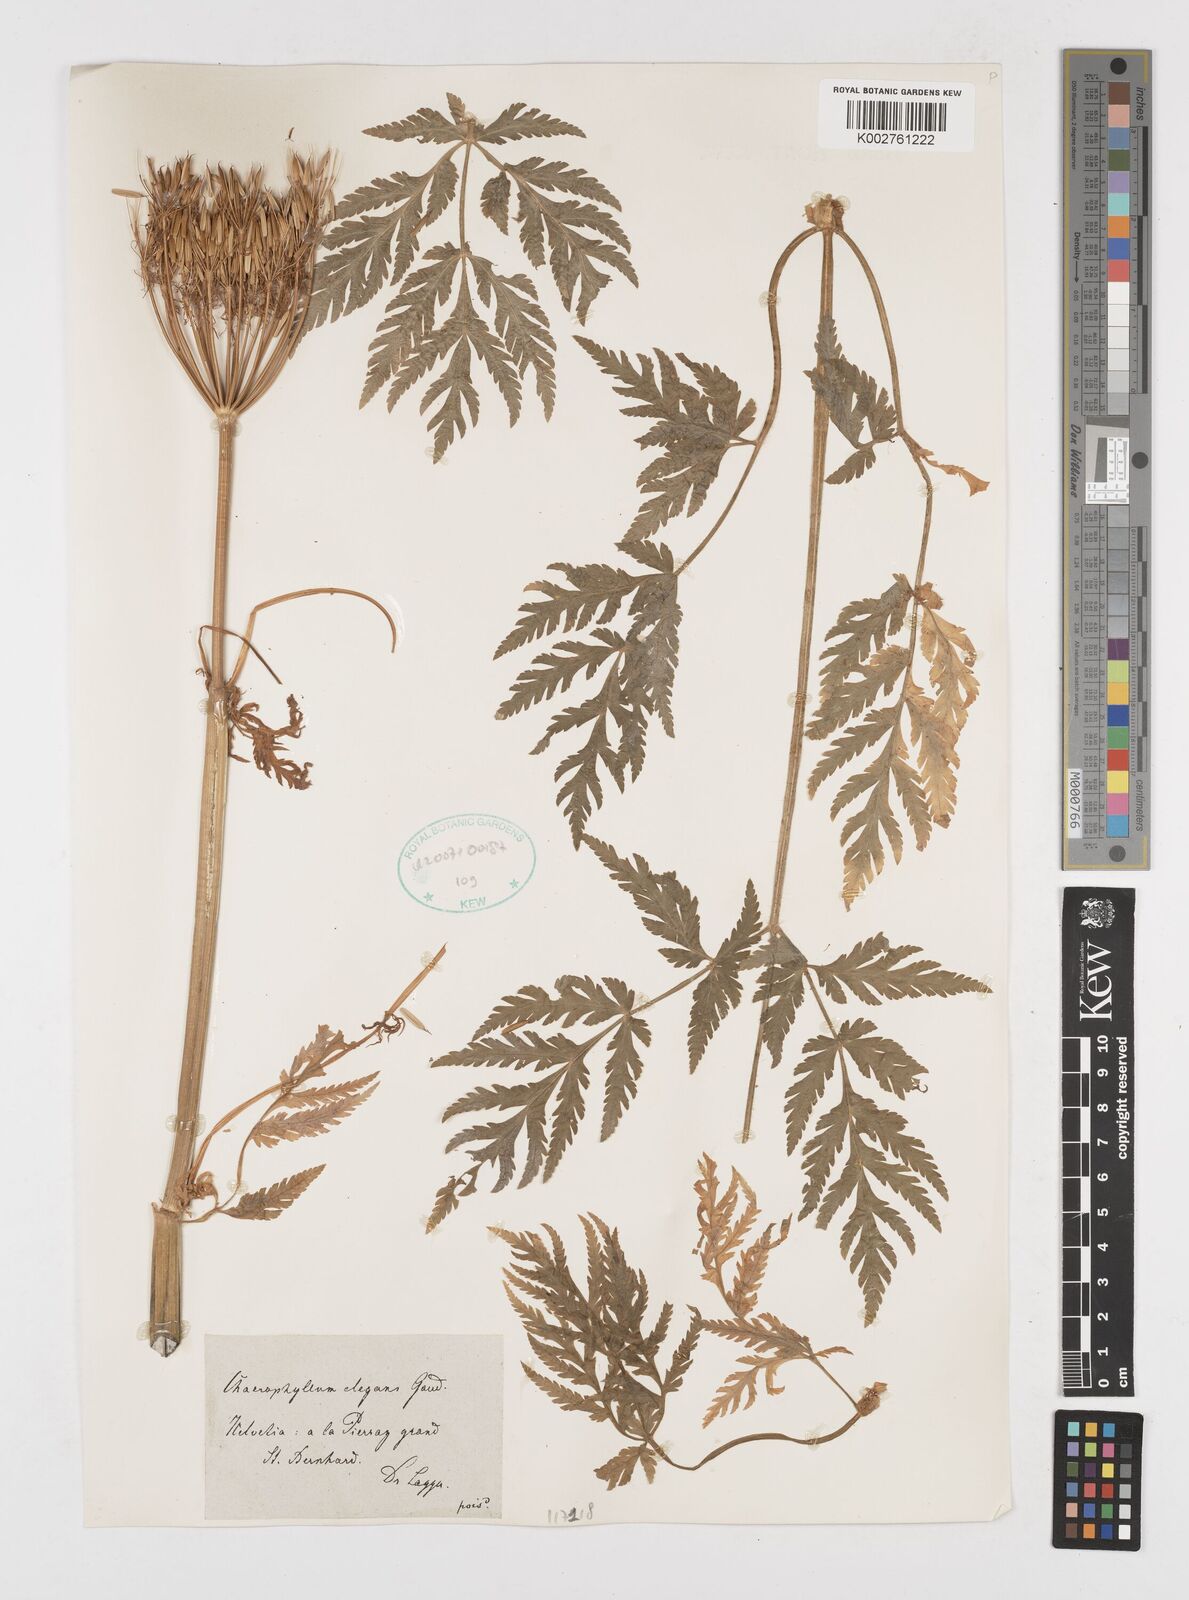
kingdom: Plantae
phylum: Tracheophyta
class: Magnoliopsida
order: Apiales
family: Apiaceae
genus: Chaerophyllum
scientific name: Chaerophyllum elegans
